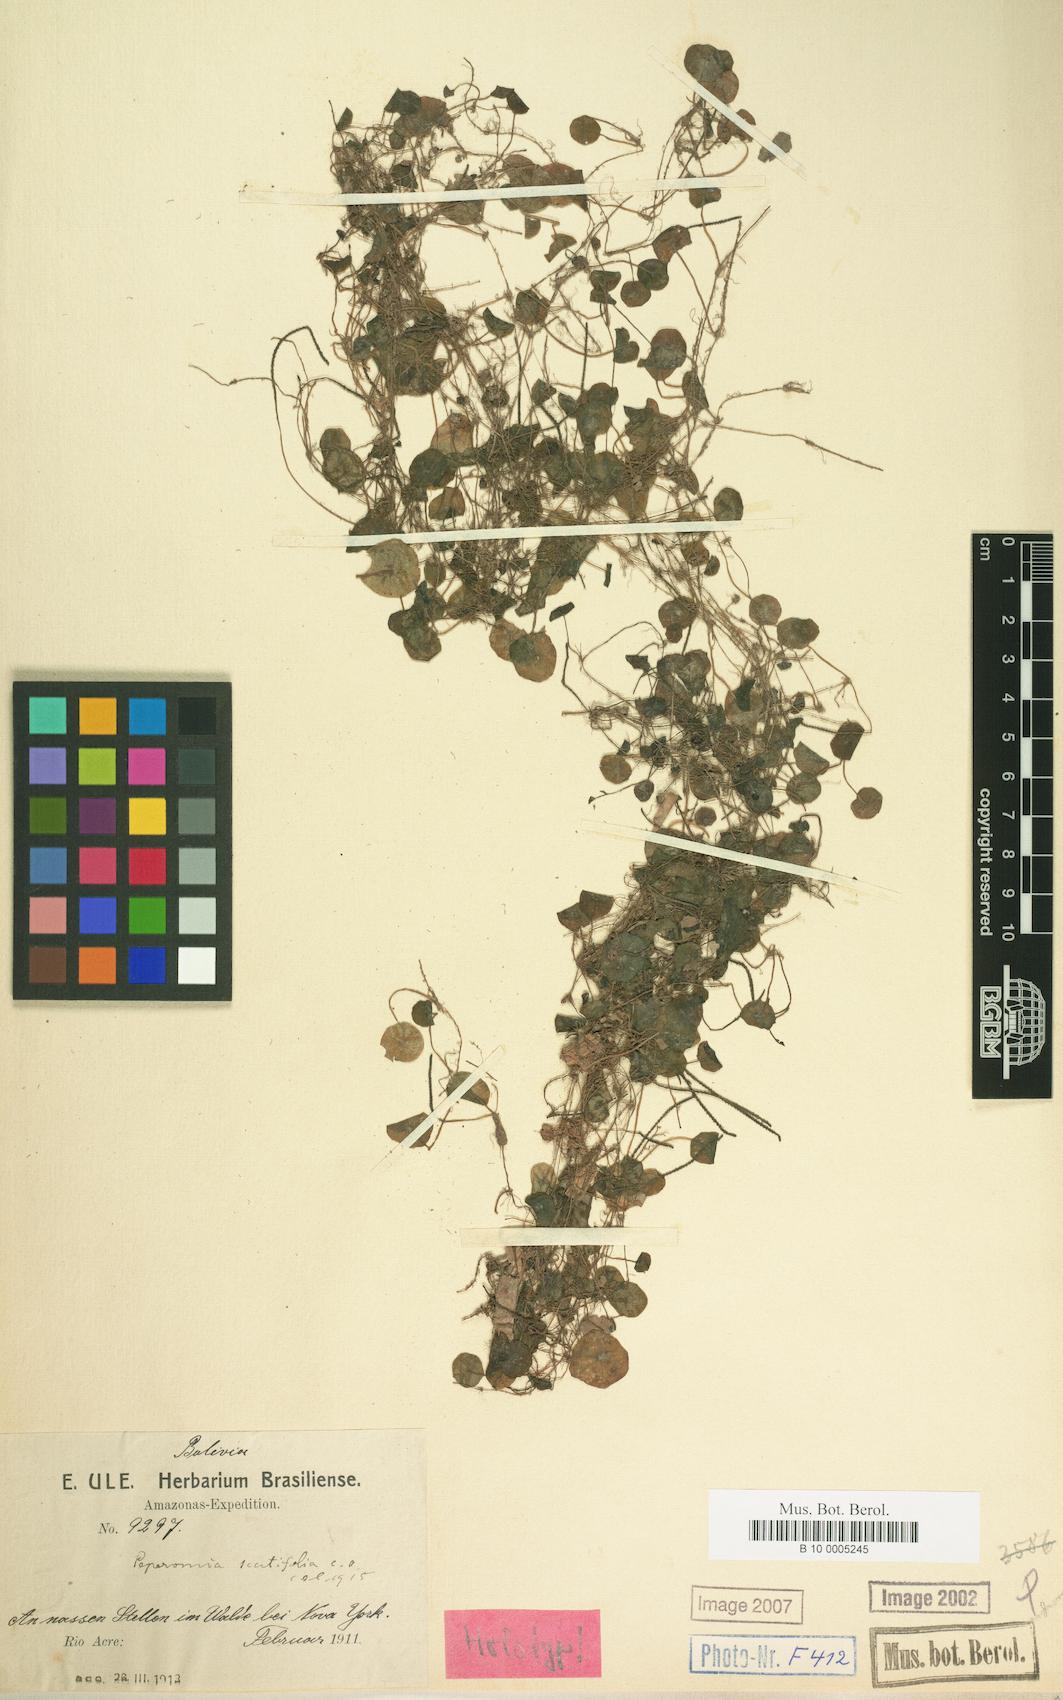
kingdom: Plantae
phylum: Tracheophyta
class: Magnoliopsida
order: Piperales
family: Piperaceae
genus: Peperomia
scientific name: Peperomia scutifolia
